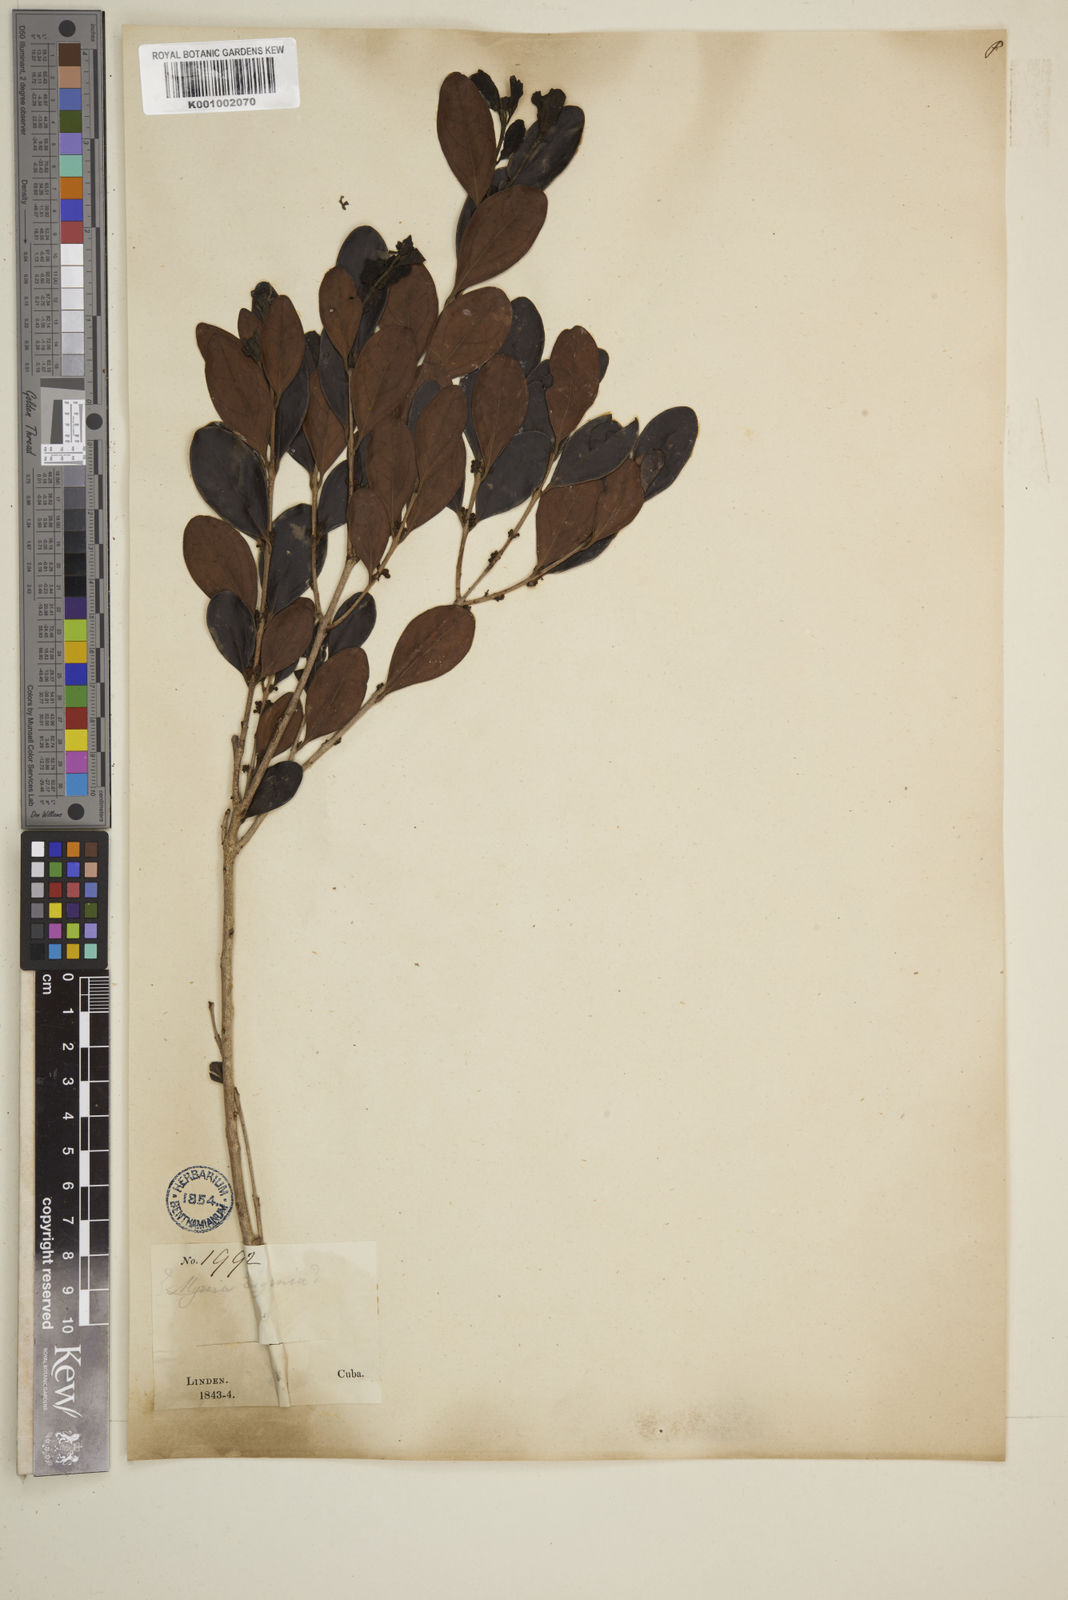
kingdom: Plantae
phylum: Tracheophyta
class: Magnoliopsida
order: Myrtales
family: Myrtaceae
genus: Eugenia
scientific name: Eugenia buxifolia
